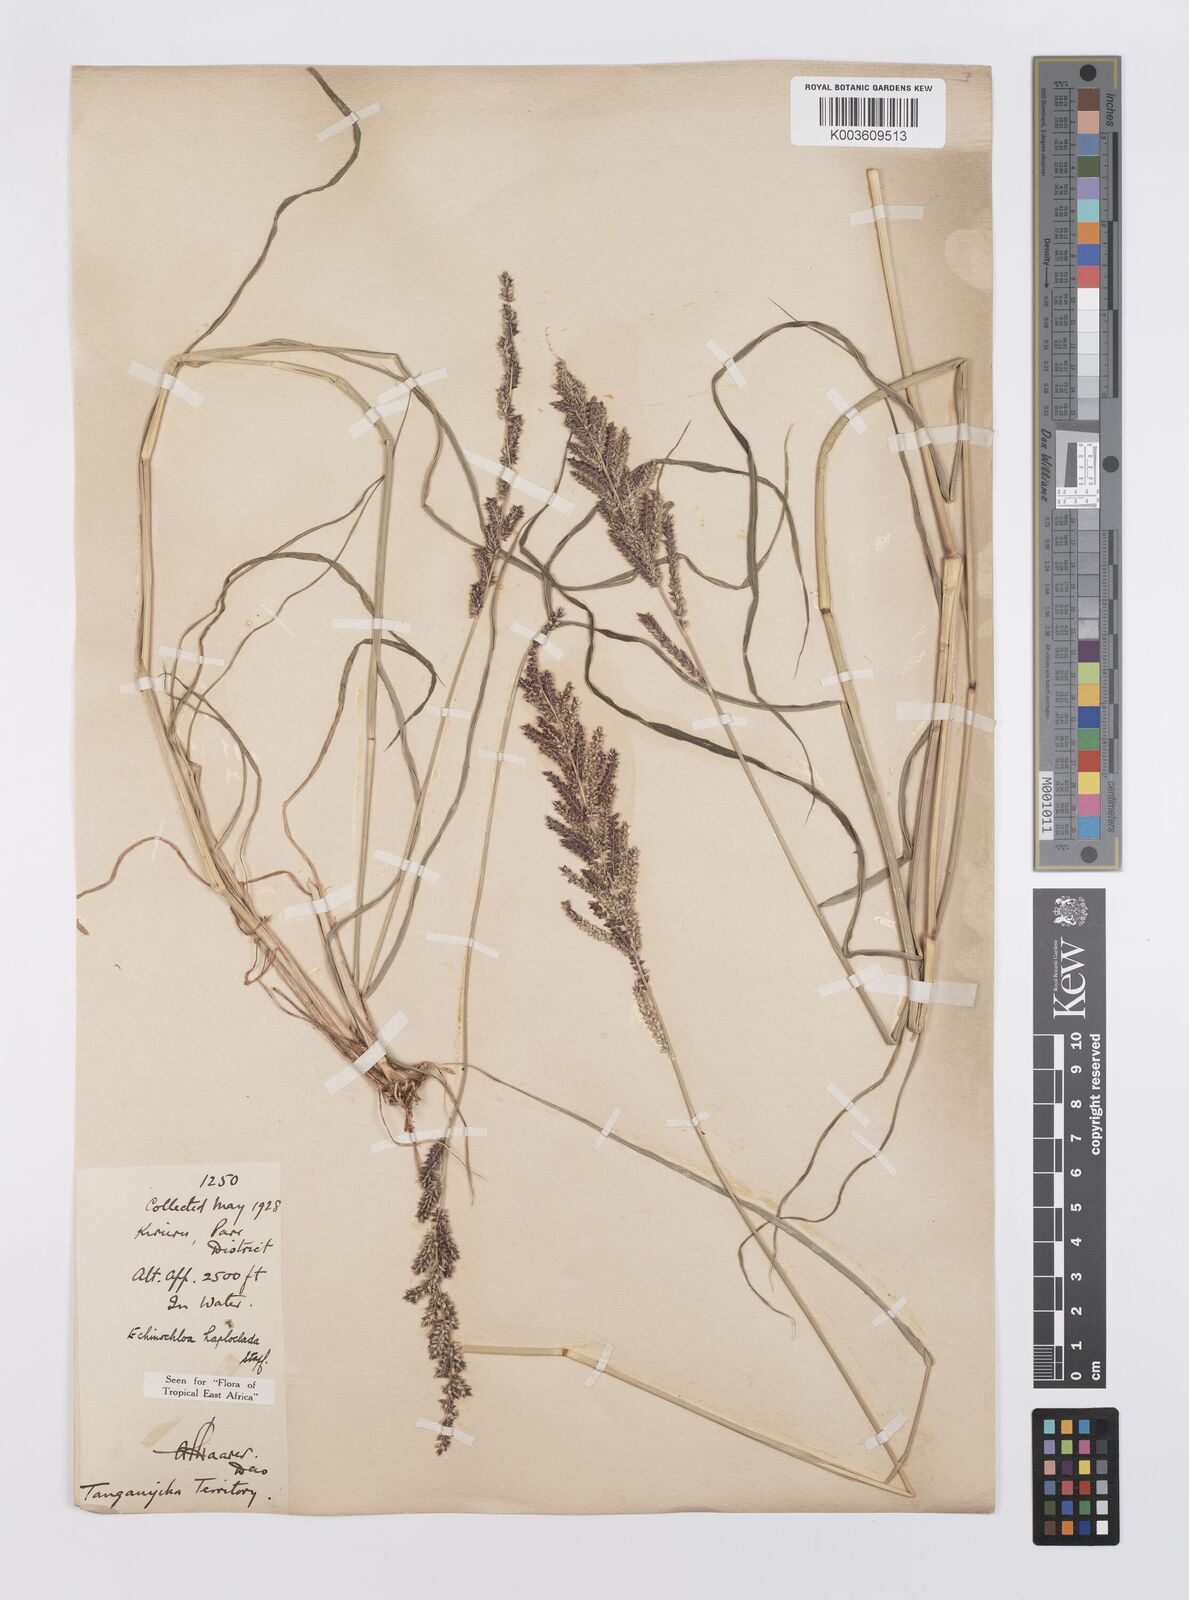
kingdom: Plantae
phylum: Tracheophyta
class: Liliopsida
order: Poales
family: Poaceae
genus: Echinochloa
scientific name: Echinochloa haploclada
